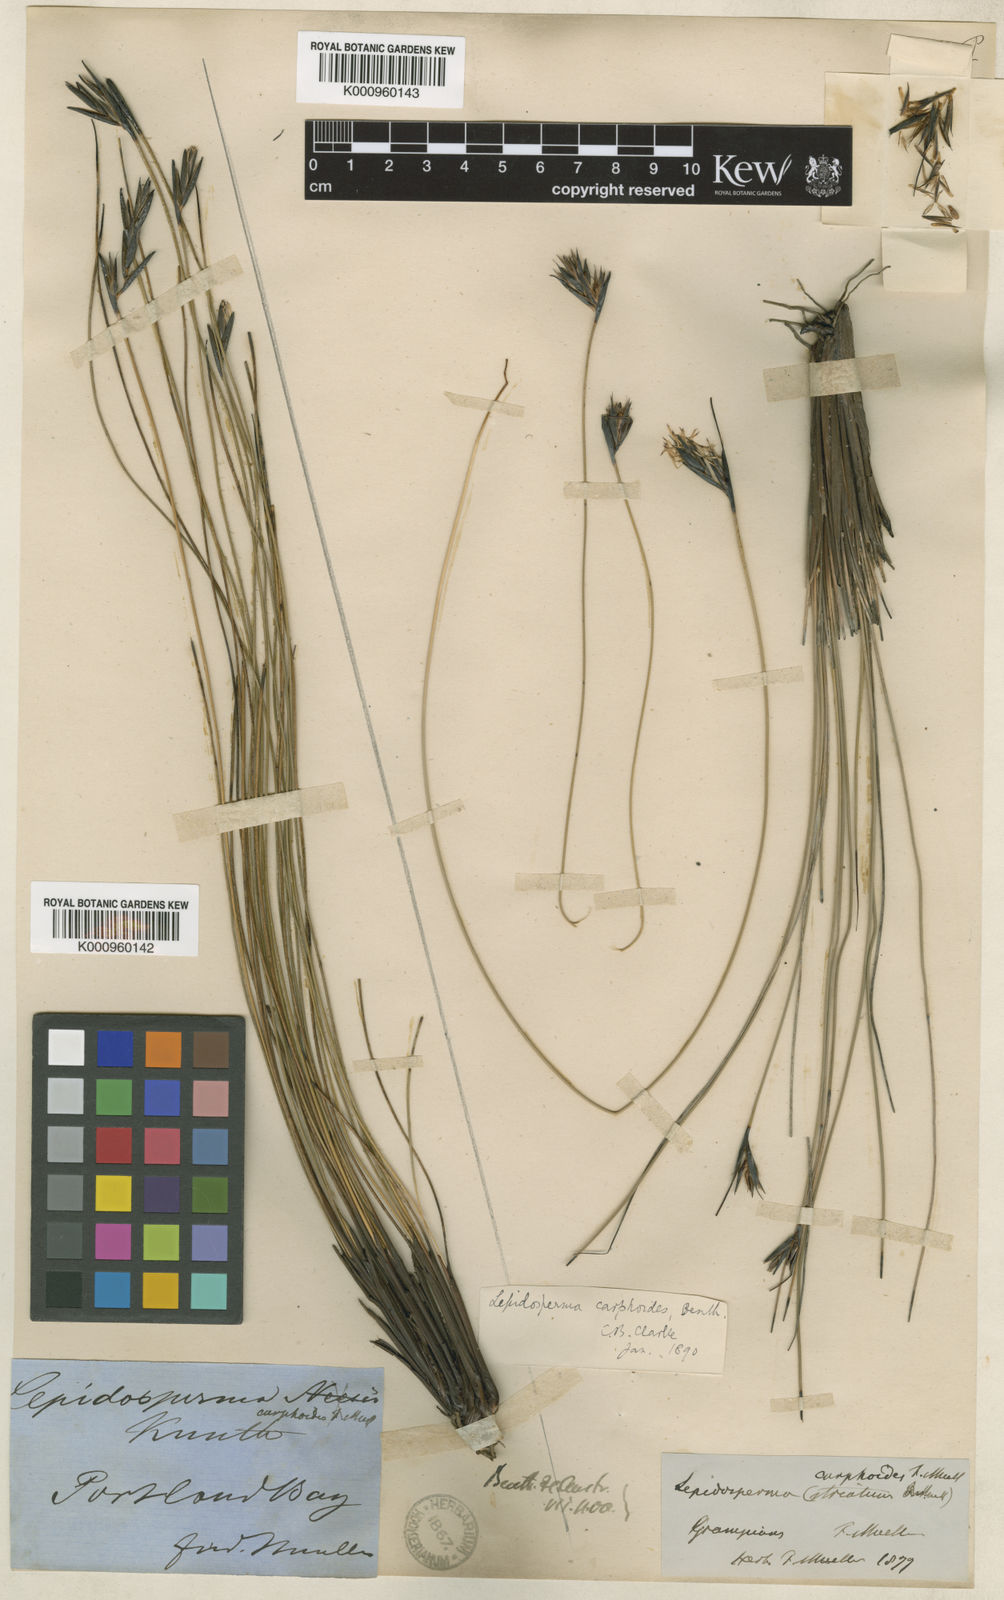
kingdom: Plantae
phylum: Tracheophyta
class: Liliopsida
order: Poales
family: Cyperaceae
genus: Lepidosperma
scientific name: Lepidosperma carphoides
